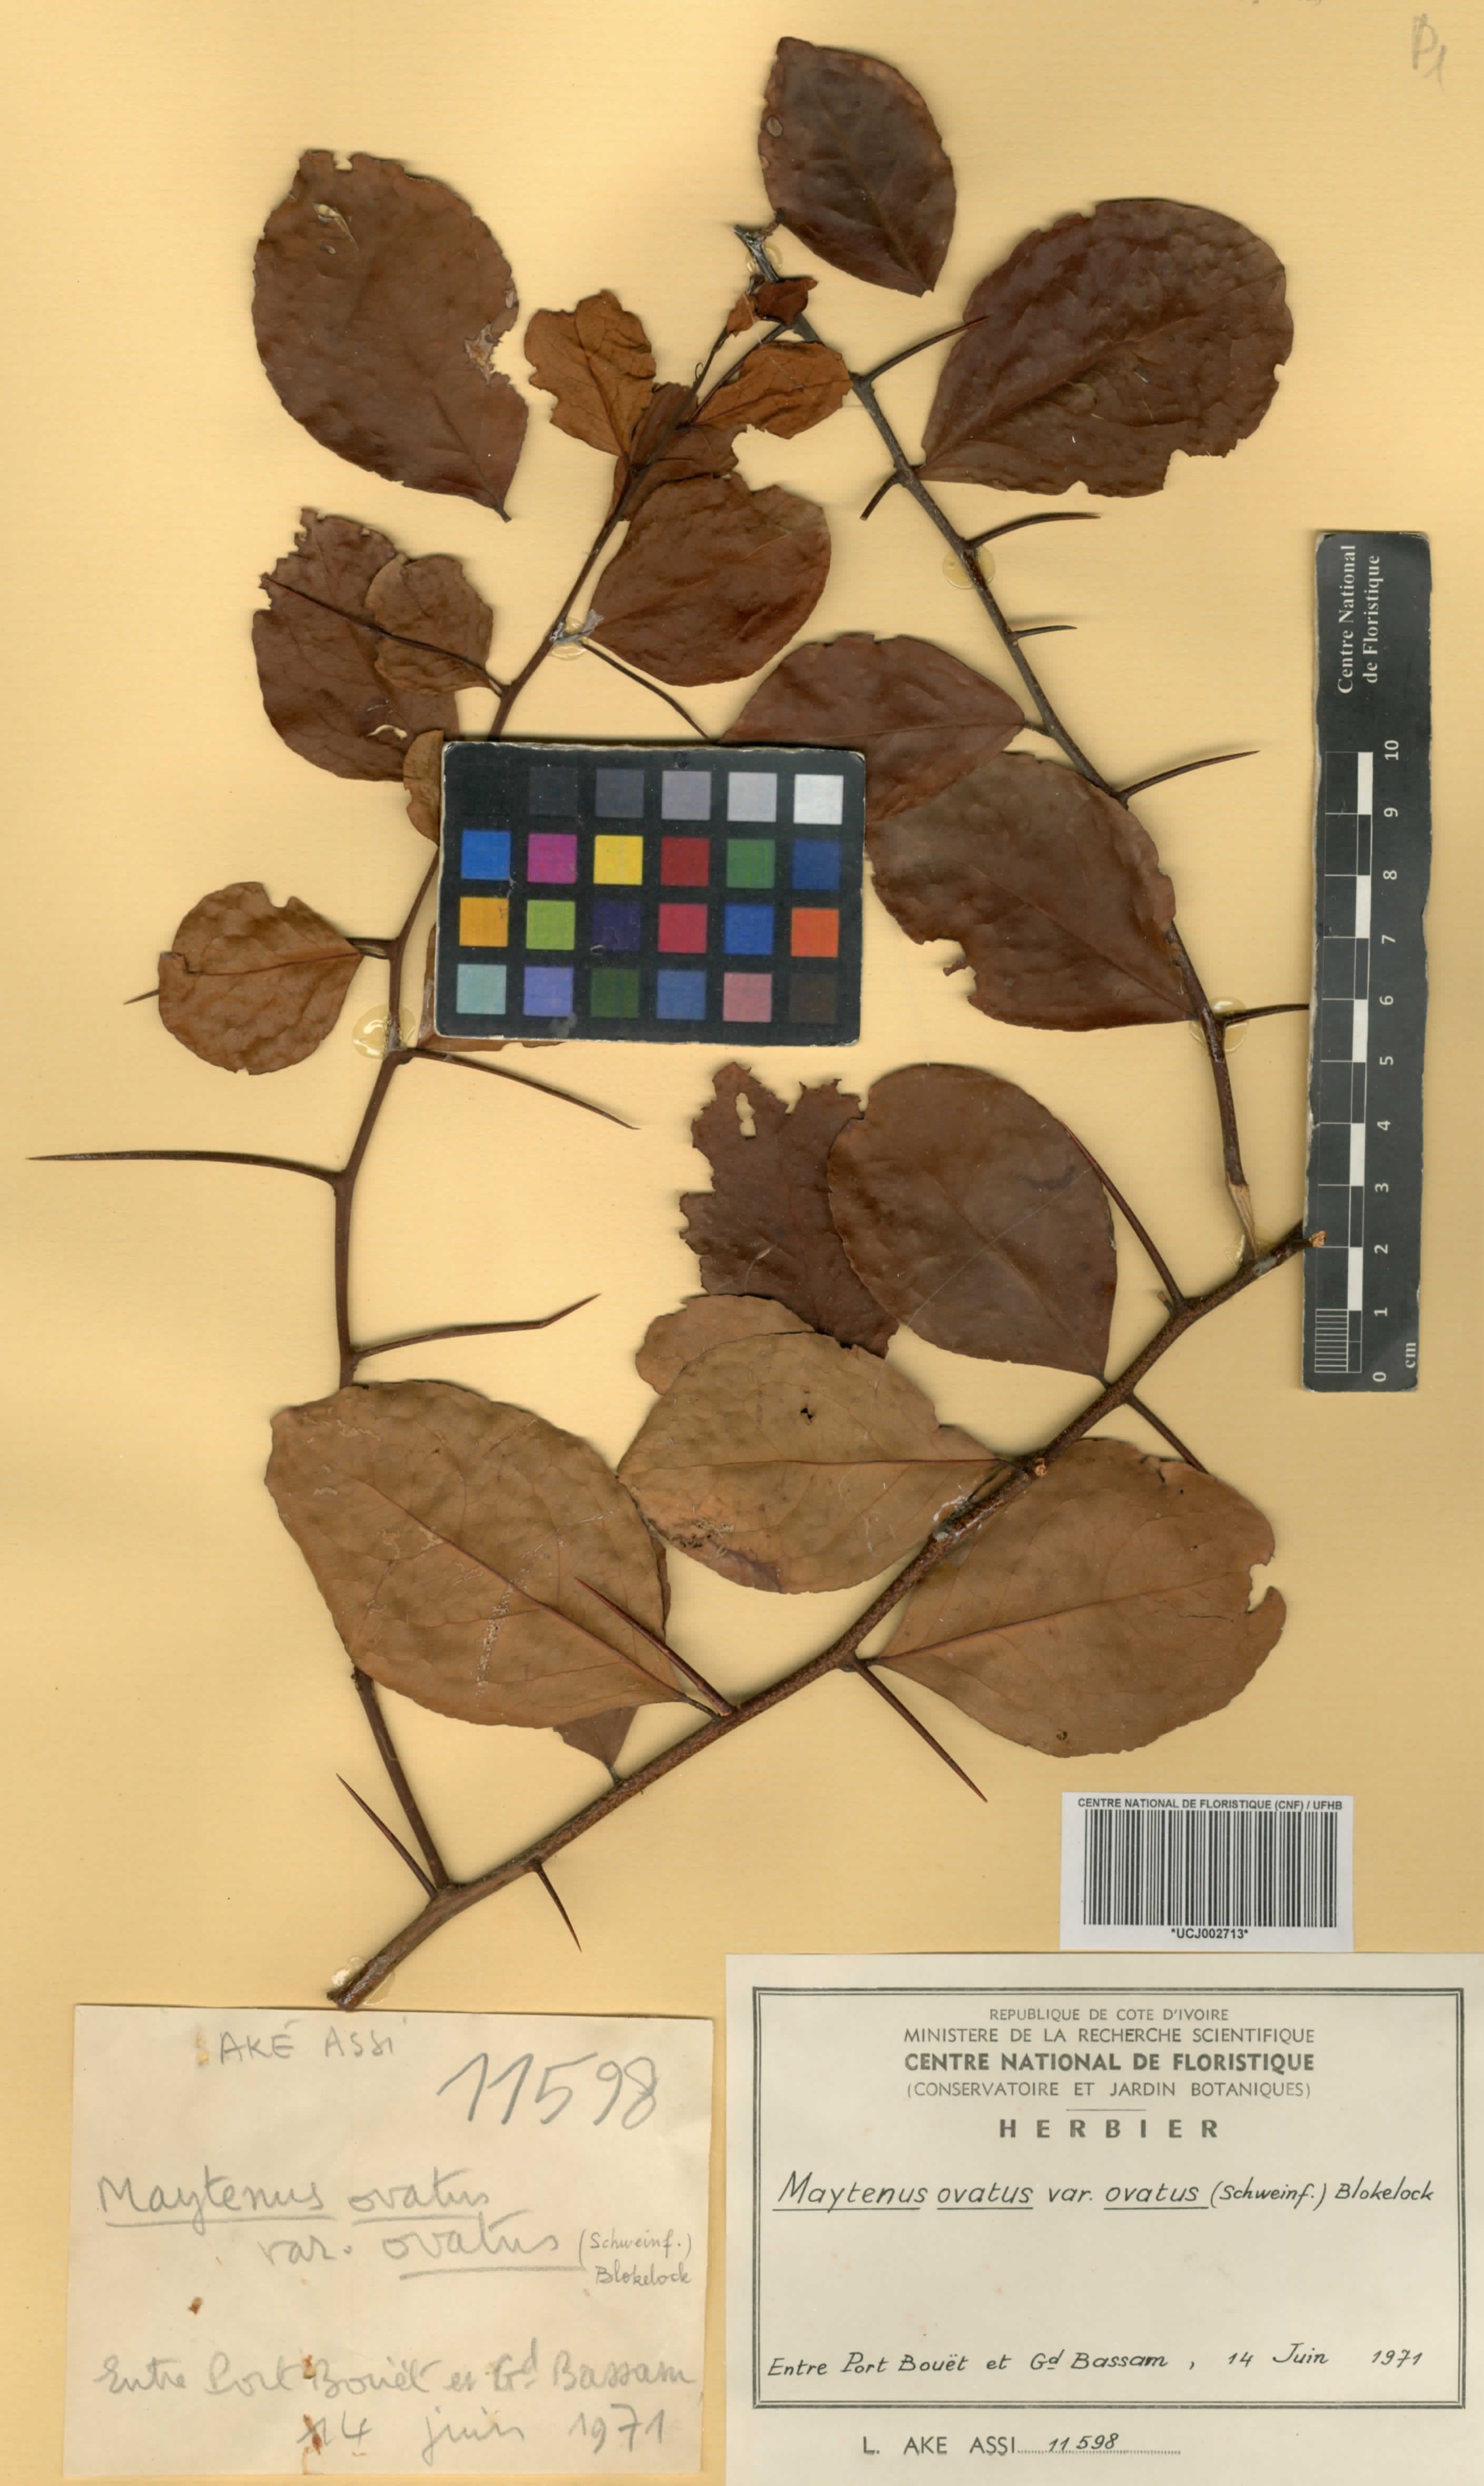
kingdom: Plantae
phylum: Tracheophyta
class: Magnoliopsida
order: Celastrales
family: Celastraceae
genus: Gymnosporia
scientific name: Gymnosporia buchananii
